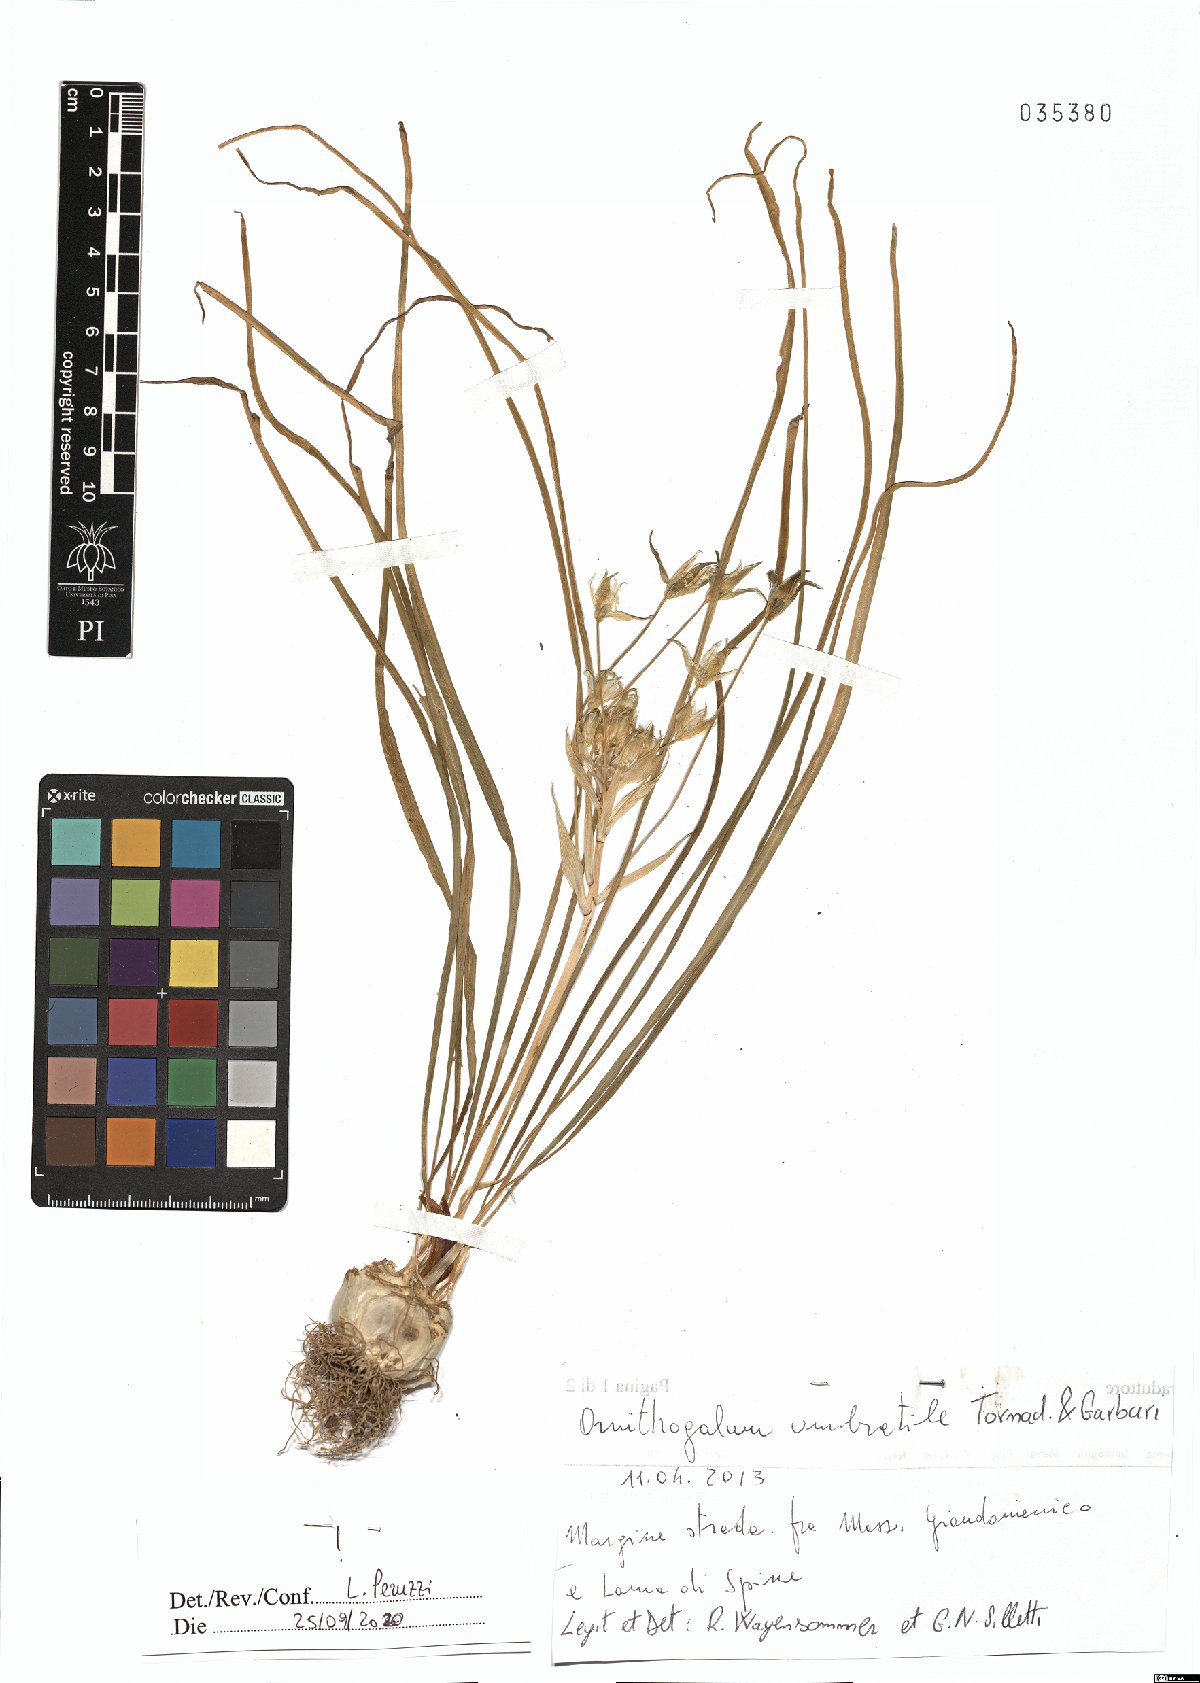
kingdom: Plantae
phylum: Tracheophyta
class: Liliopsida
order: Asparagales
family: Asparagaceae
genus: Ornithogalum
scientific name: Ornithogalum umbratile
